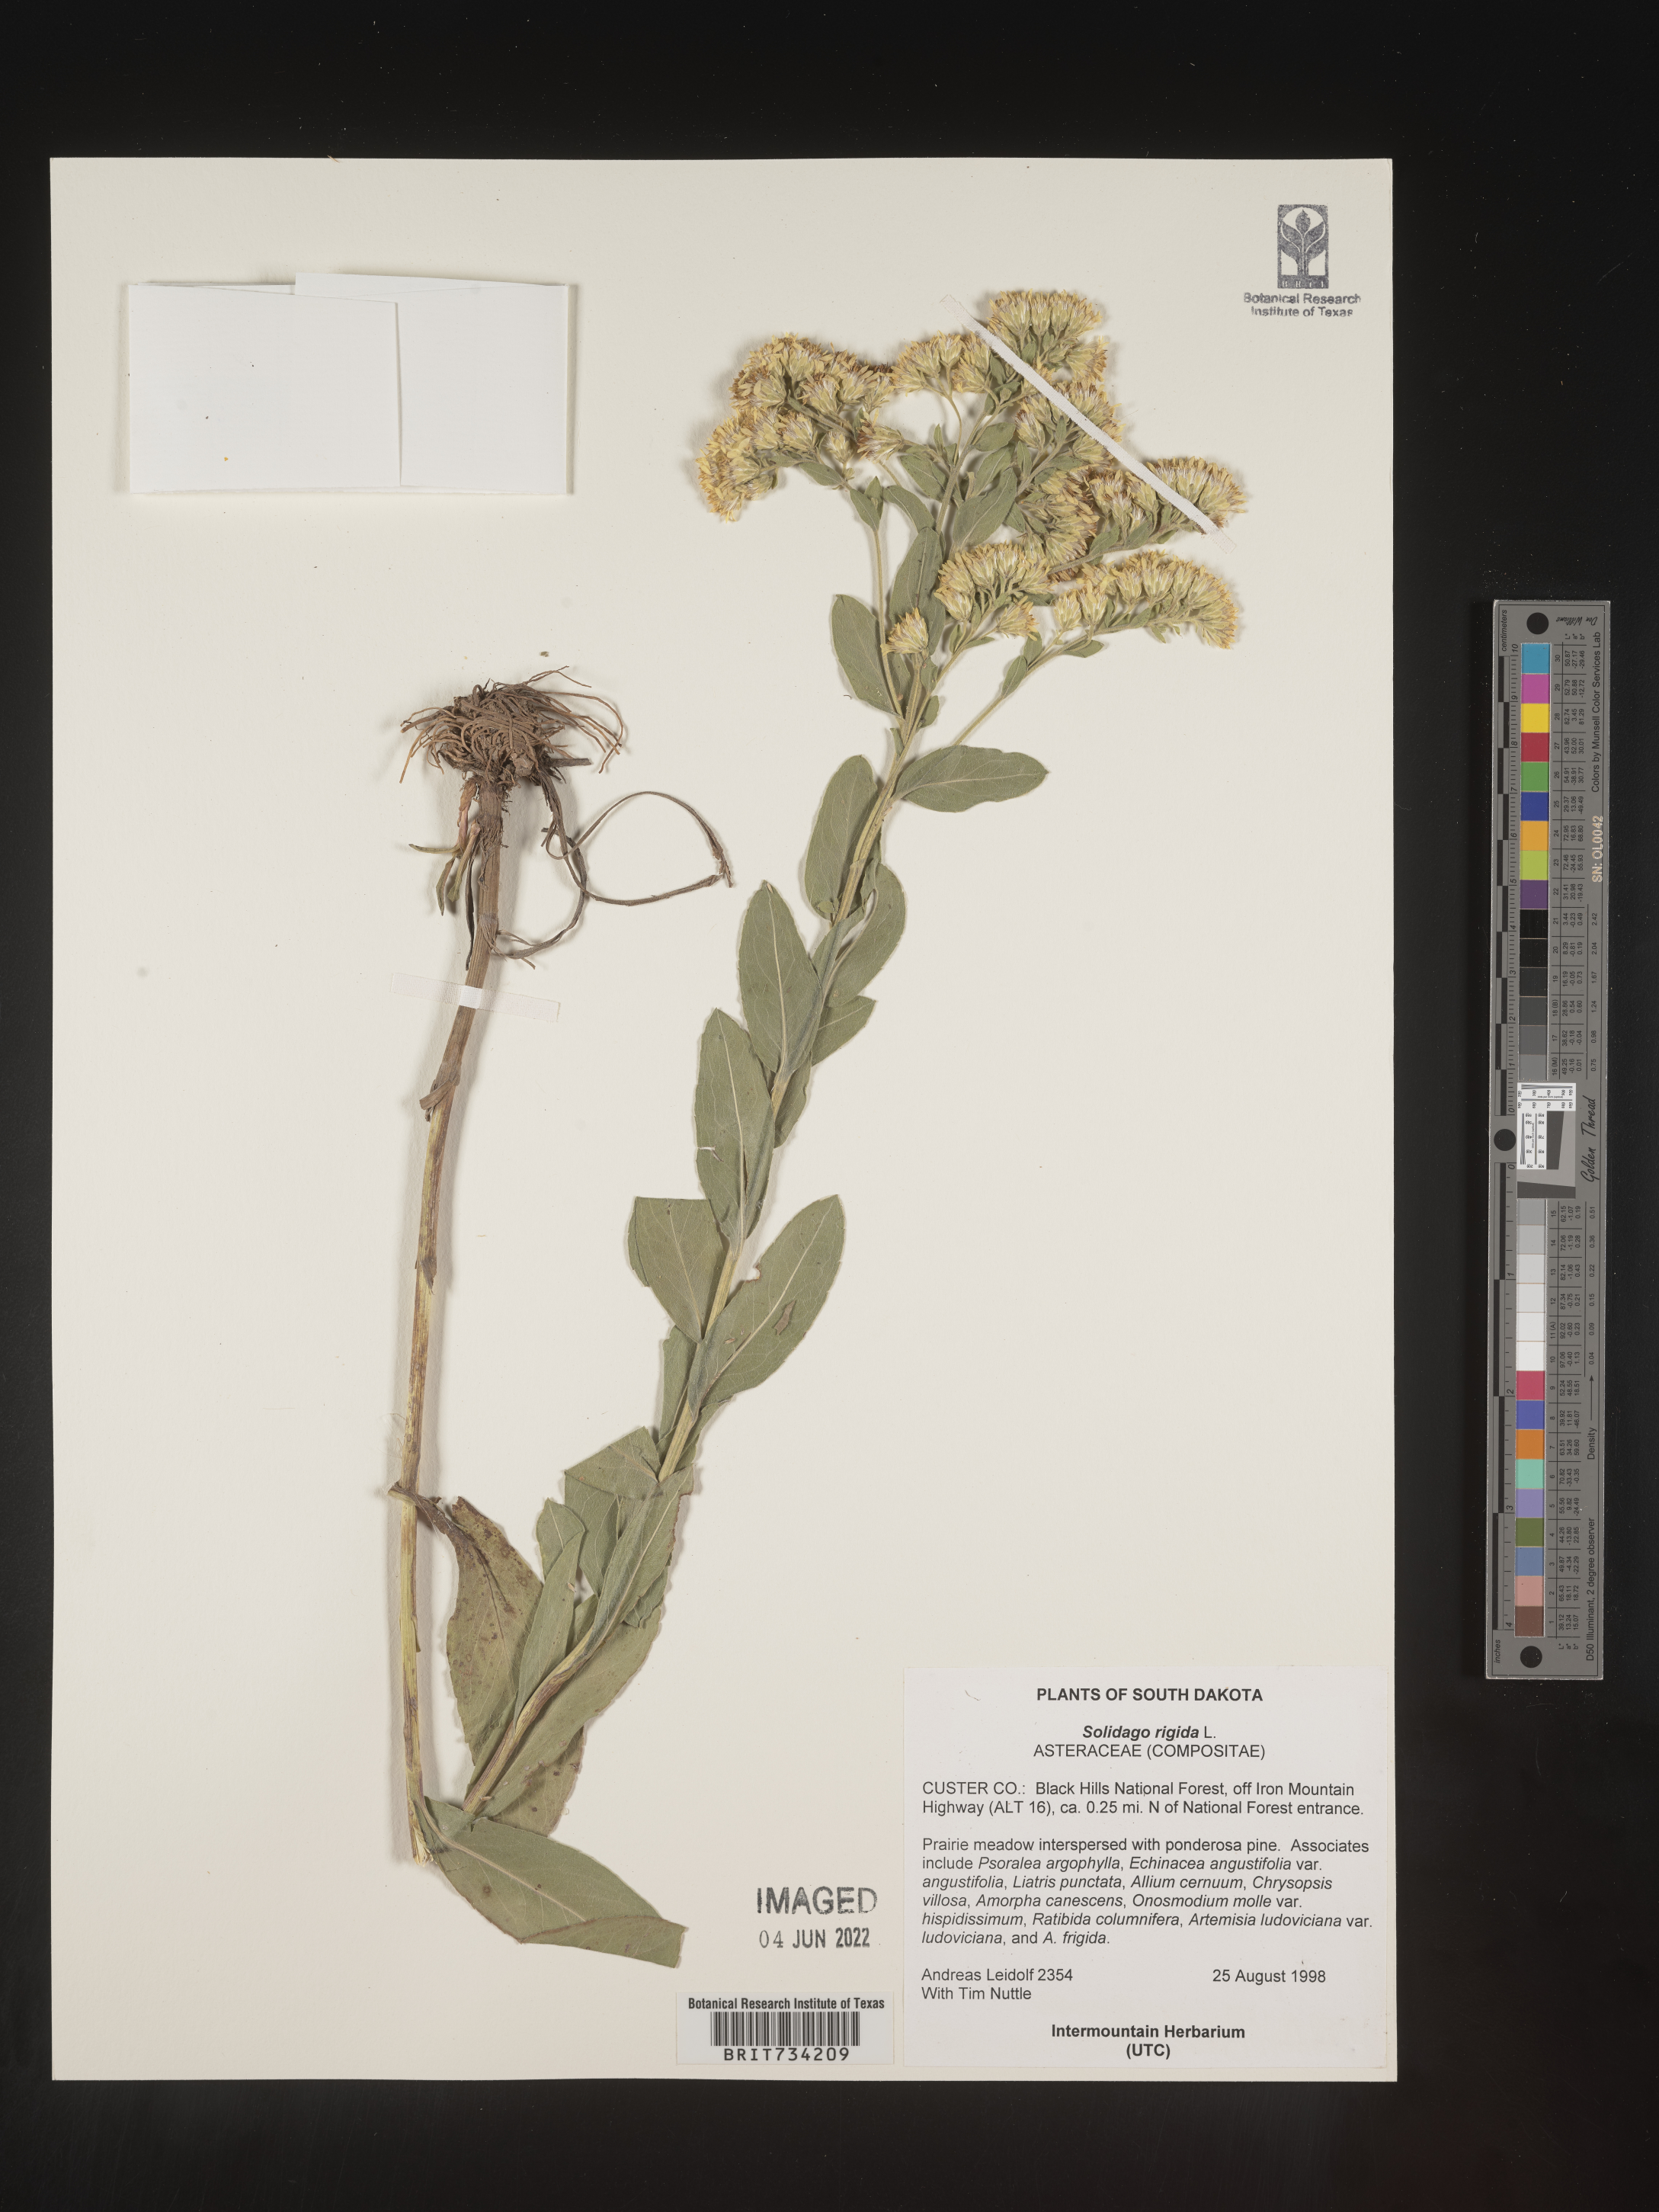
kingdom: Plantae
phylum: Tracheophyta
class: Magnoliopsida
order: Asterales
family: Asteraceae
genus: Solidago
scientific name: Solidago rigida
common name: Rigid goldenrod
